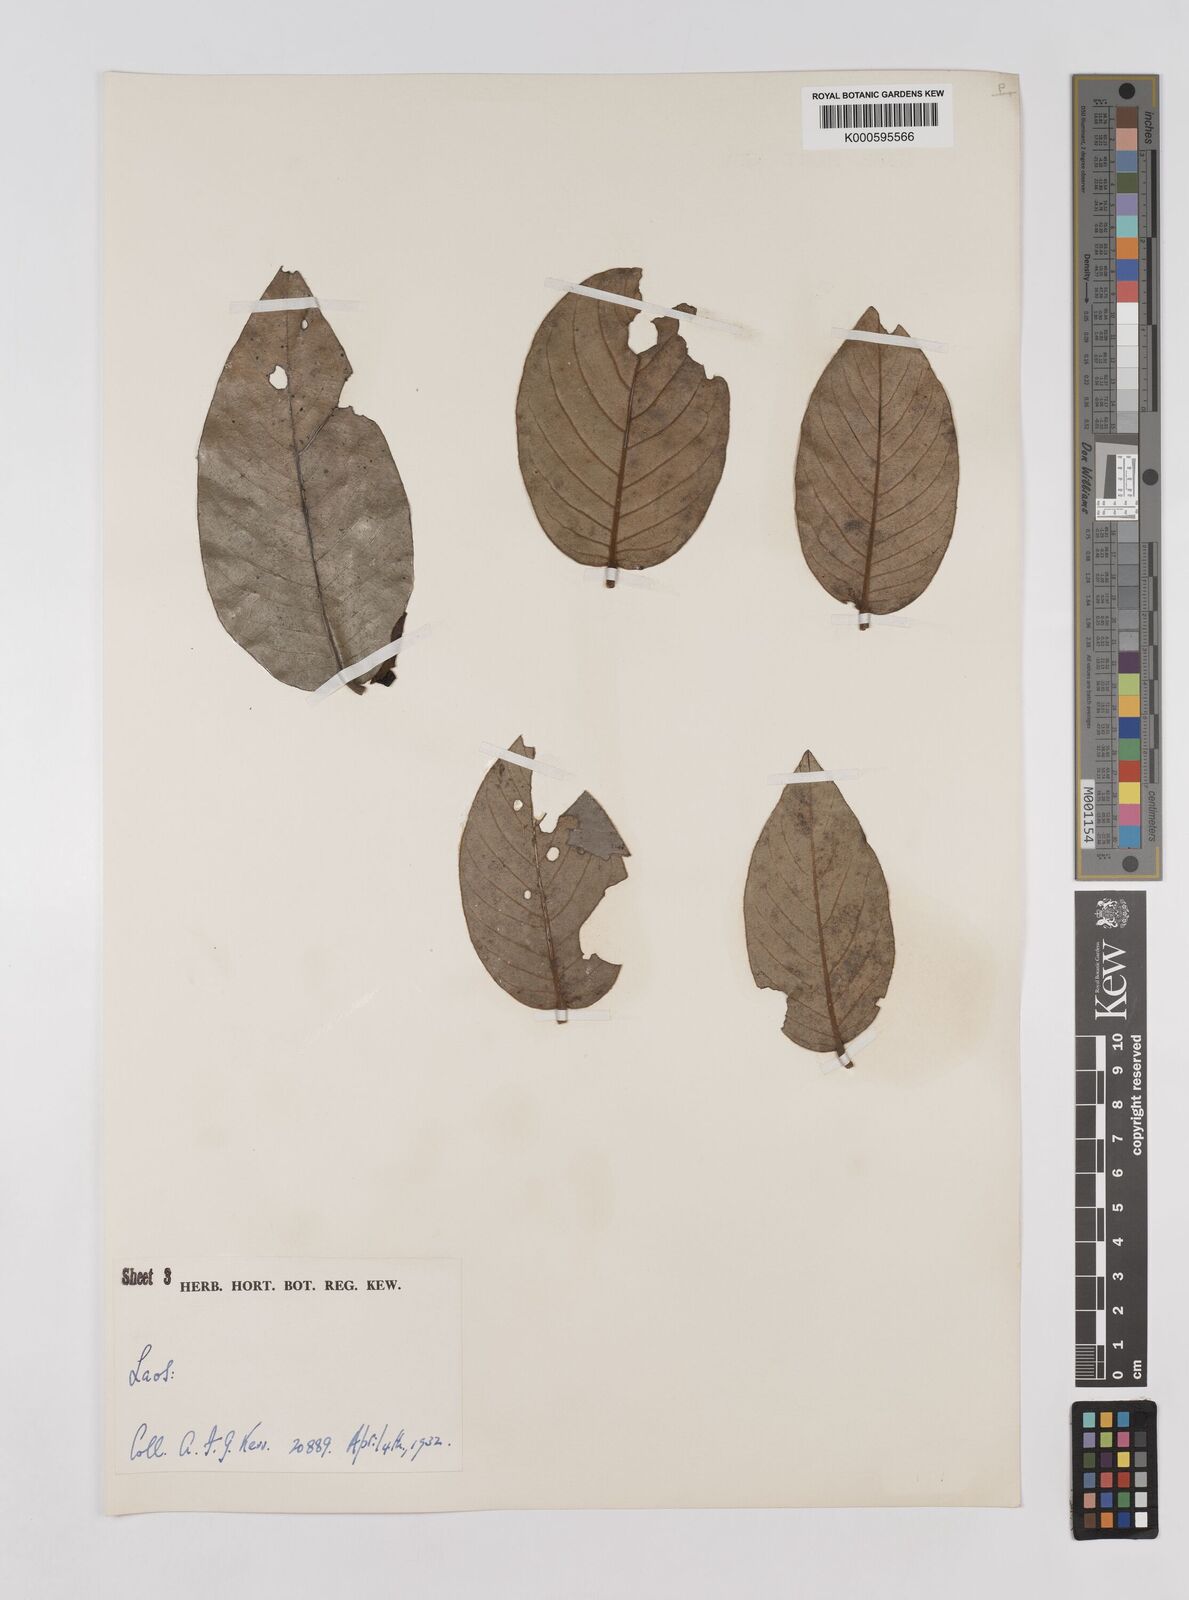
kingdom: Plantae
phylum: Tracheophyta
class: Magnoliopsida
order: Magnoliales
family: Annonaceae
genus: Mitrephora
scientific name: Mitrephora
